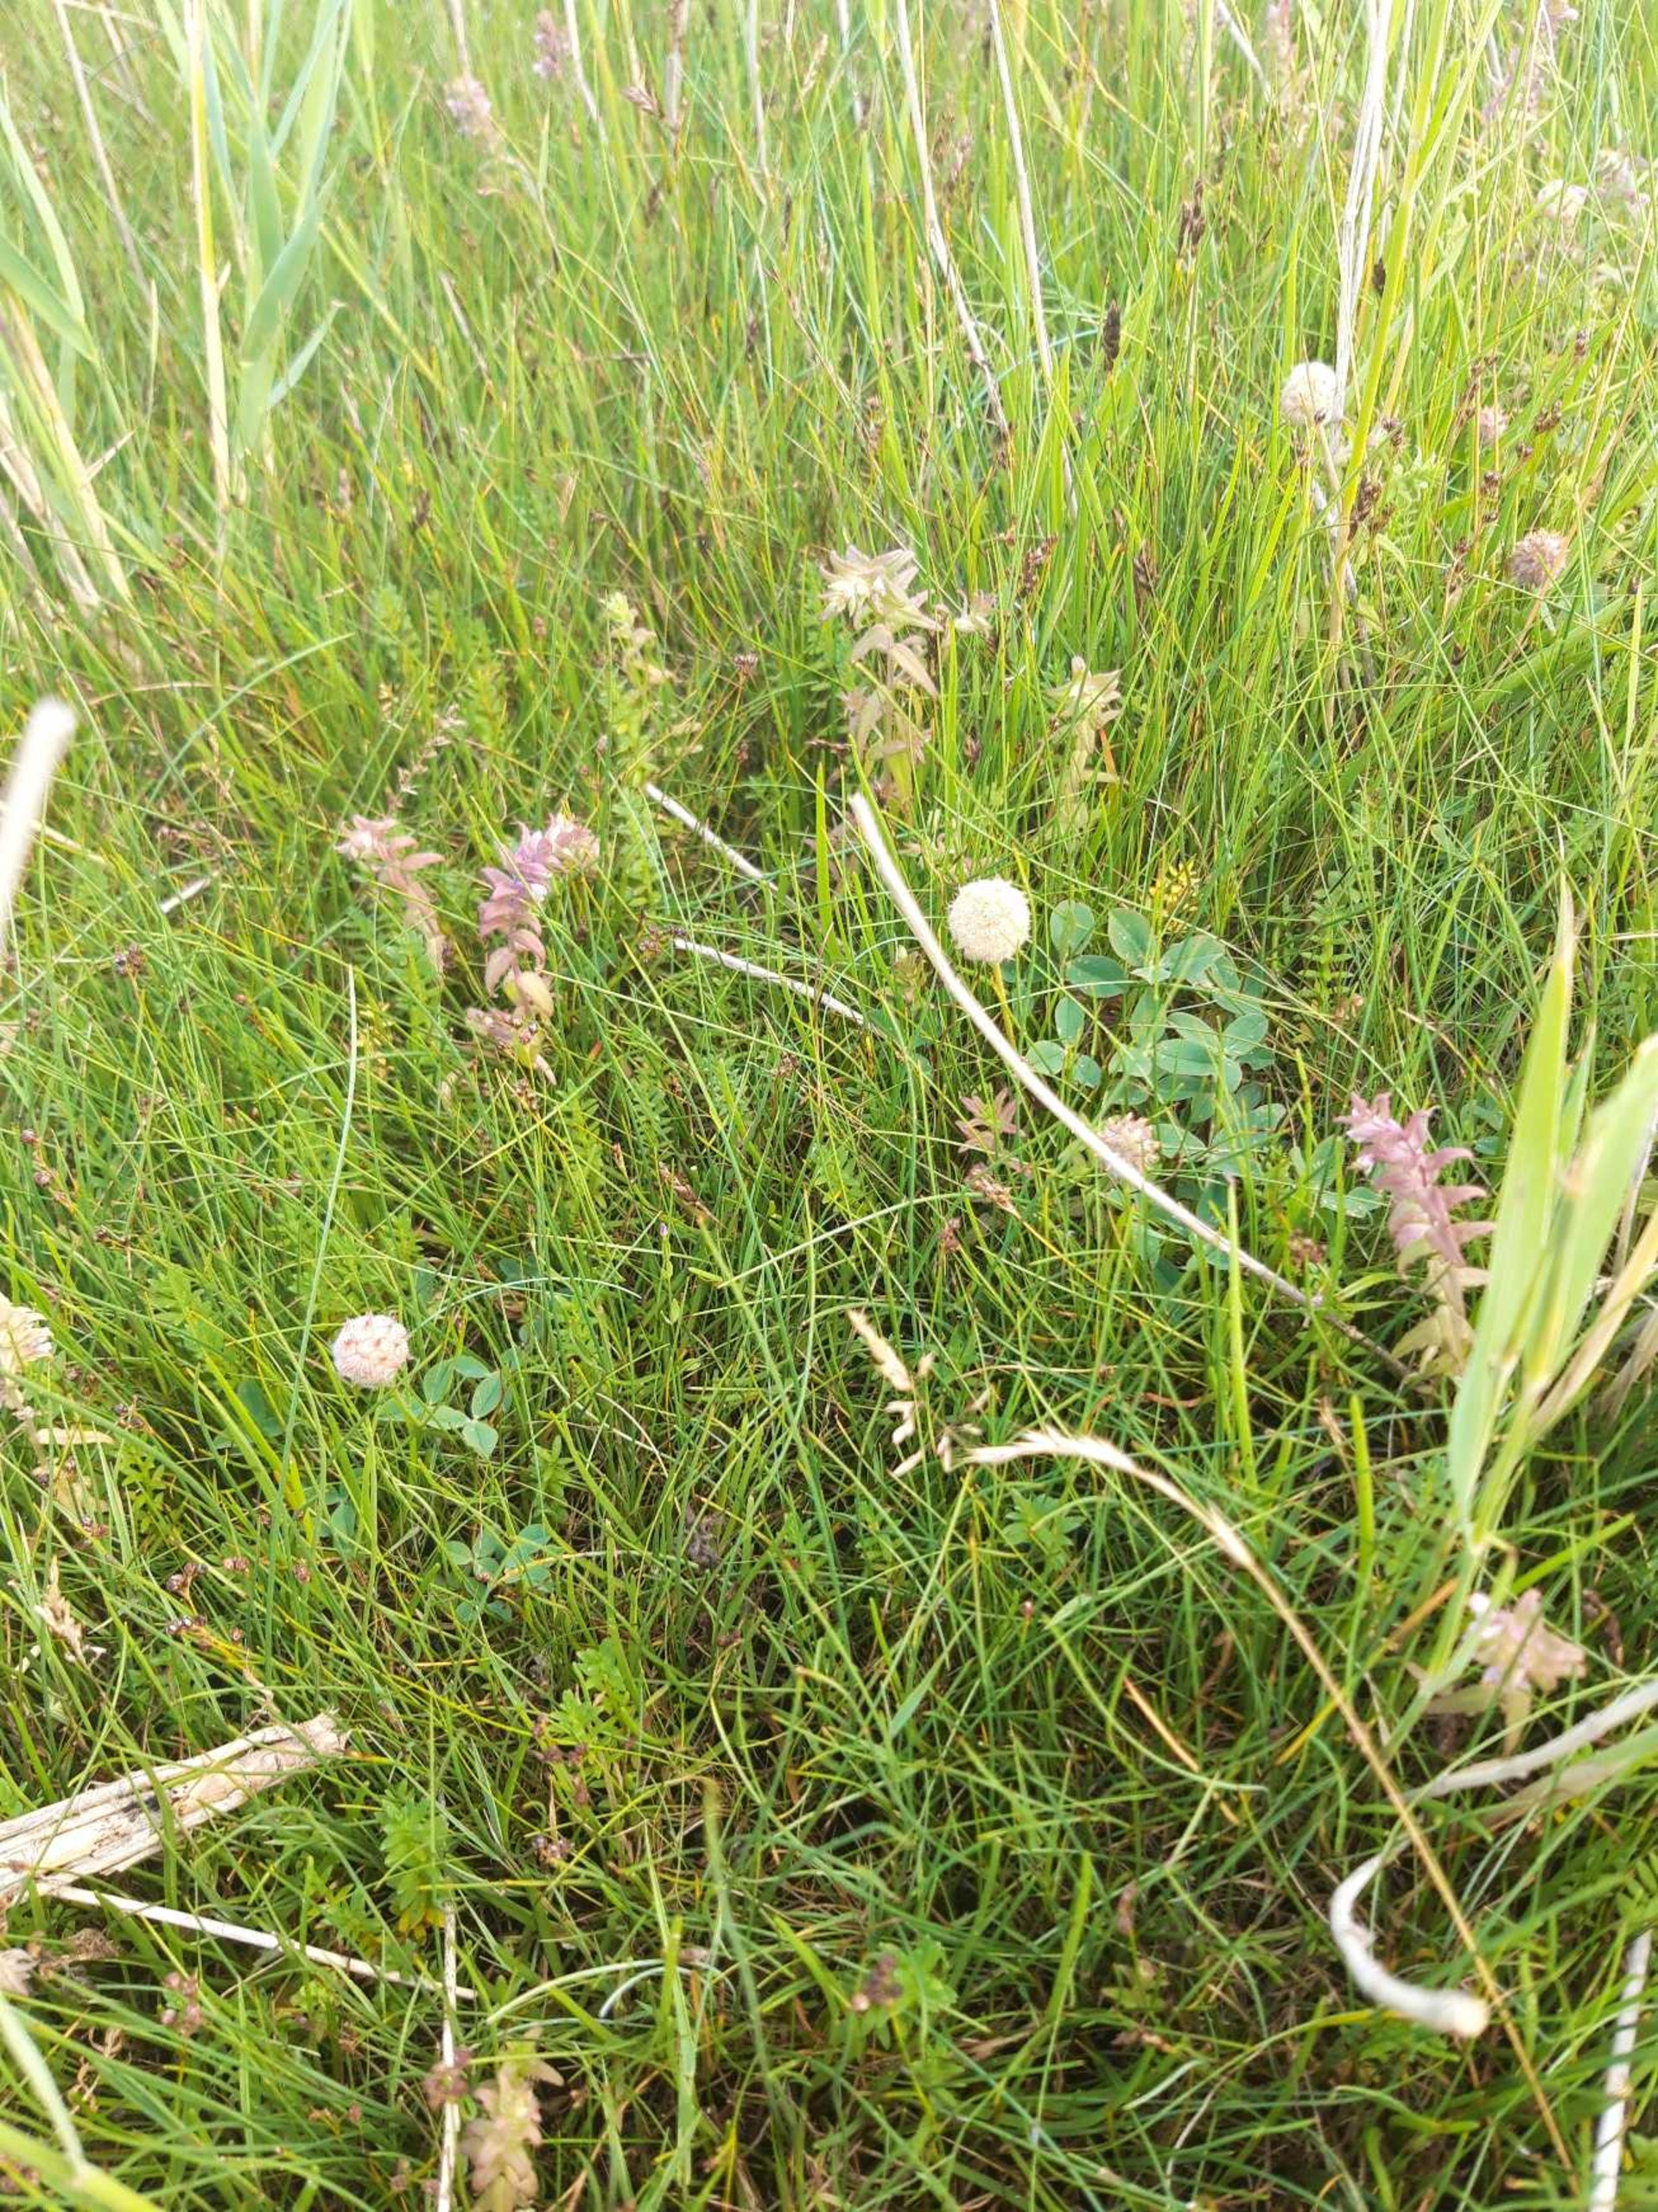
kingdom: Plantae
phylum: Tracheophyta
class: Magnoliopsida
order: Fabales
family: Fabaceae
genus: Trifolium
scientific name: Trifolium fragiferum
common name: Jordbær-kløver
